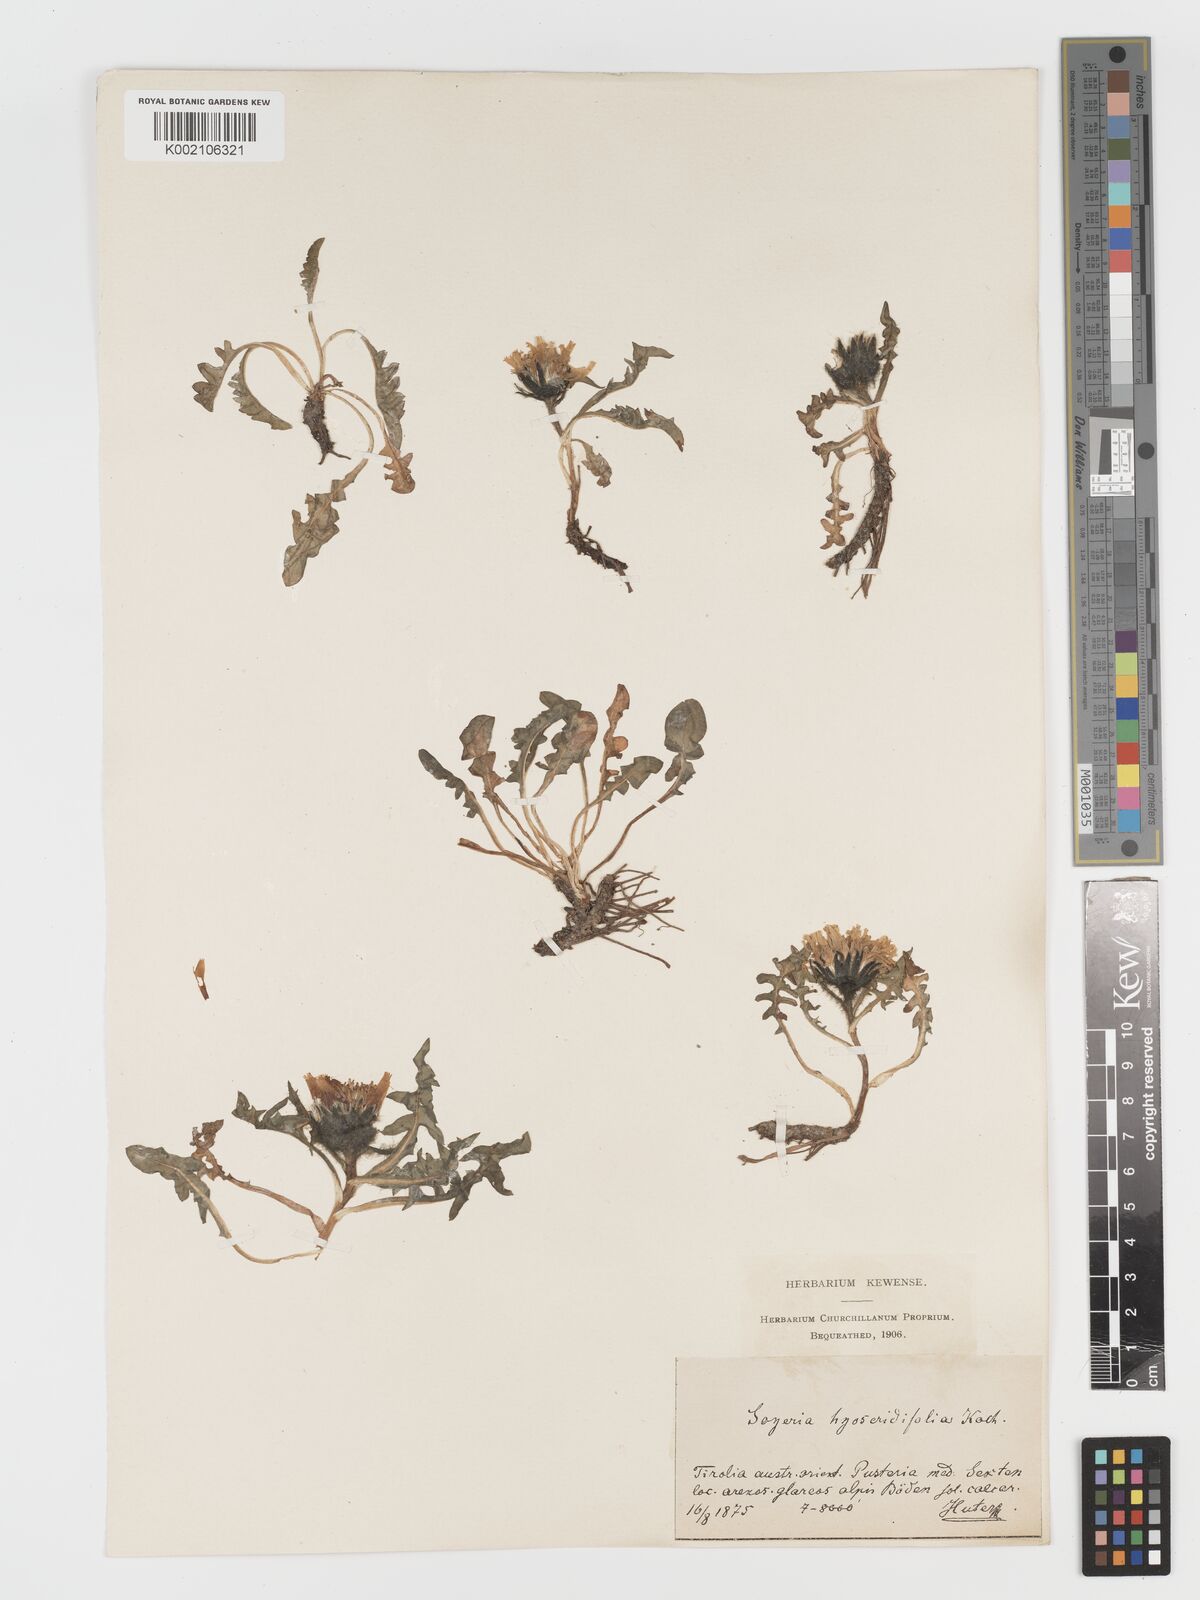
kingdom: Plantae
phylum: Tracheophyta
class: Magnoliopsida
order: Asterales
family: Asteraceae
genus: Crepis
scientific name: Crepis terglouensis
